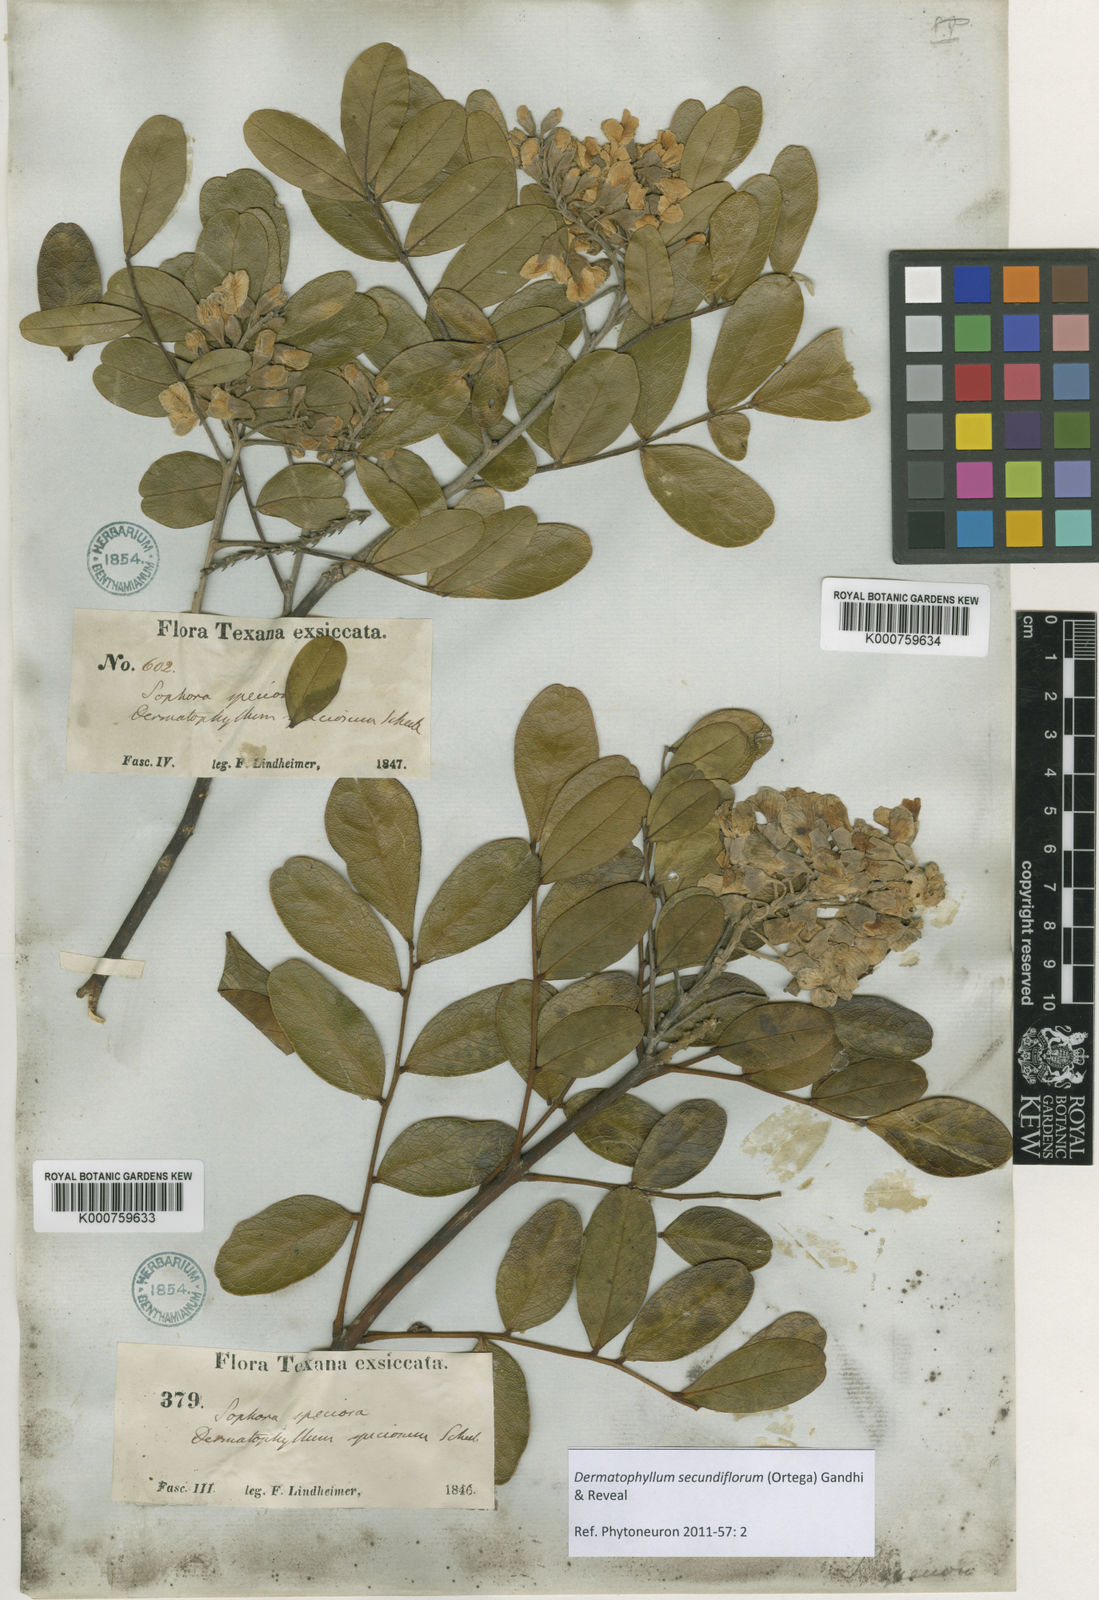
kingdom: Plantae
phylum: Tracheophyta
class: Magnoliopsida
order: Fabales
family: Fabaceae
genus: Dermatophyllum
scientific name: Dermatophyllum secundiflorum
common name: Texas-mountain-laurel
